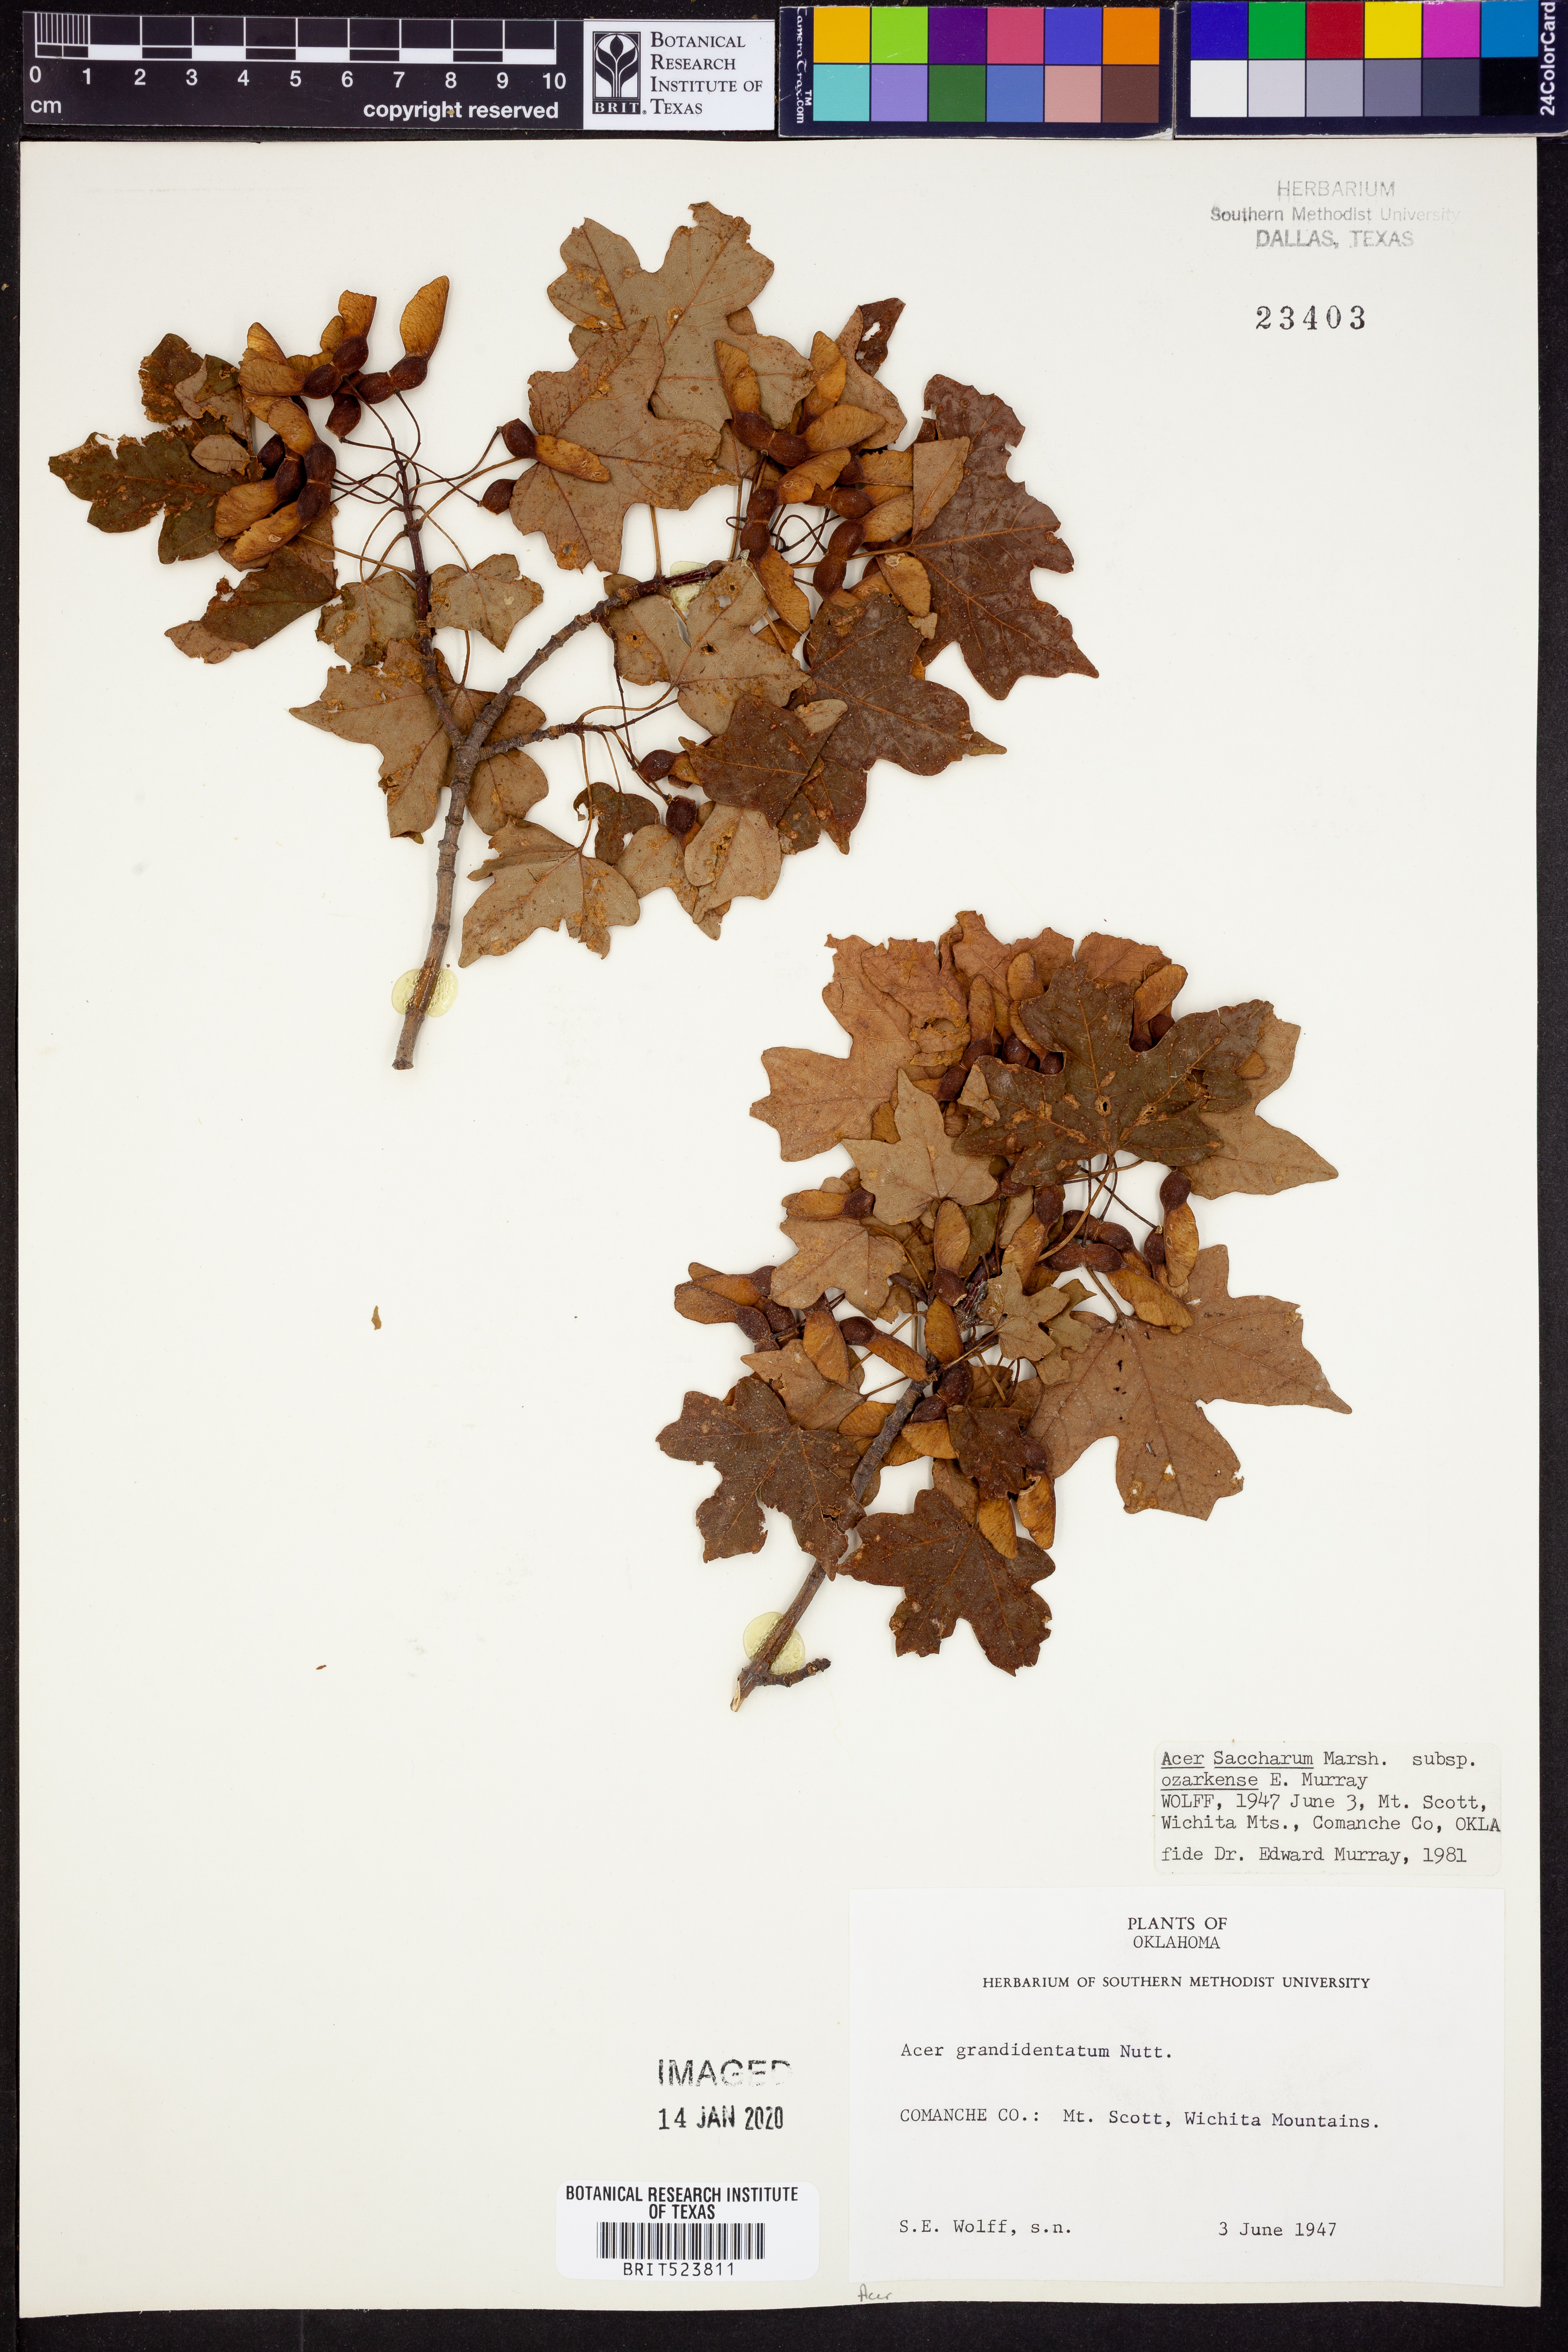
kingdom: Plantae
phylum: Tracheophyta
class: Magnoliopsida
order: Sapindales
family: Sapindaceae
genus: Acer
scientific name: Acer saccharum
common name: Sugar maple
